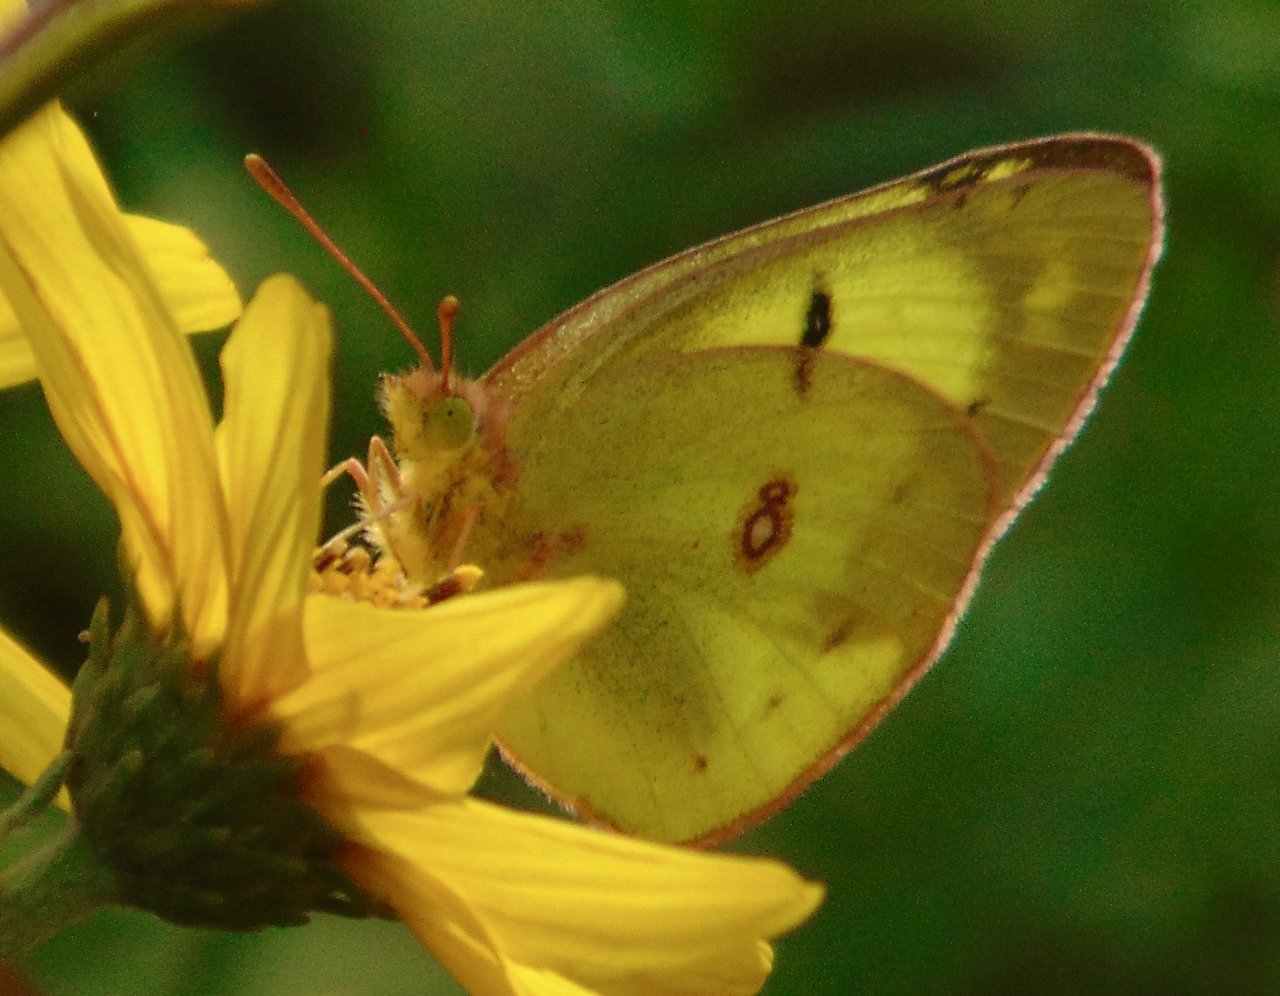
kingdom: Animalia
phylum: Arthropoda
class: Insecta
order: Lepidoptera
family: Pieridae
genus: Colias
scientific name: Colias philodice
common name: Clouded Sulphur
